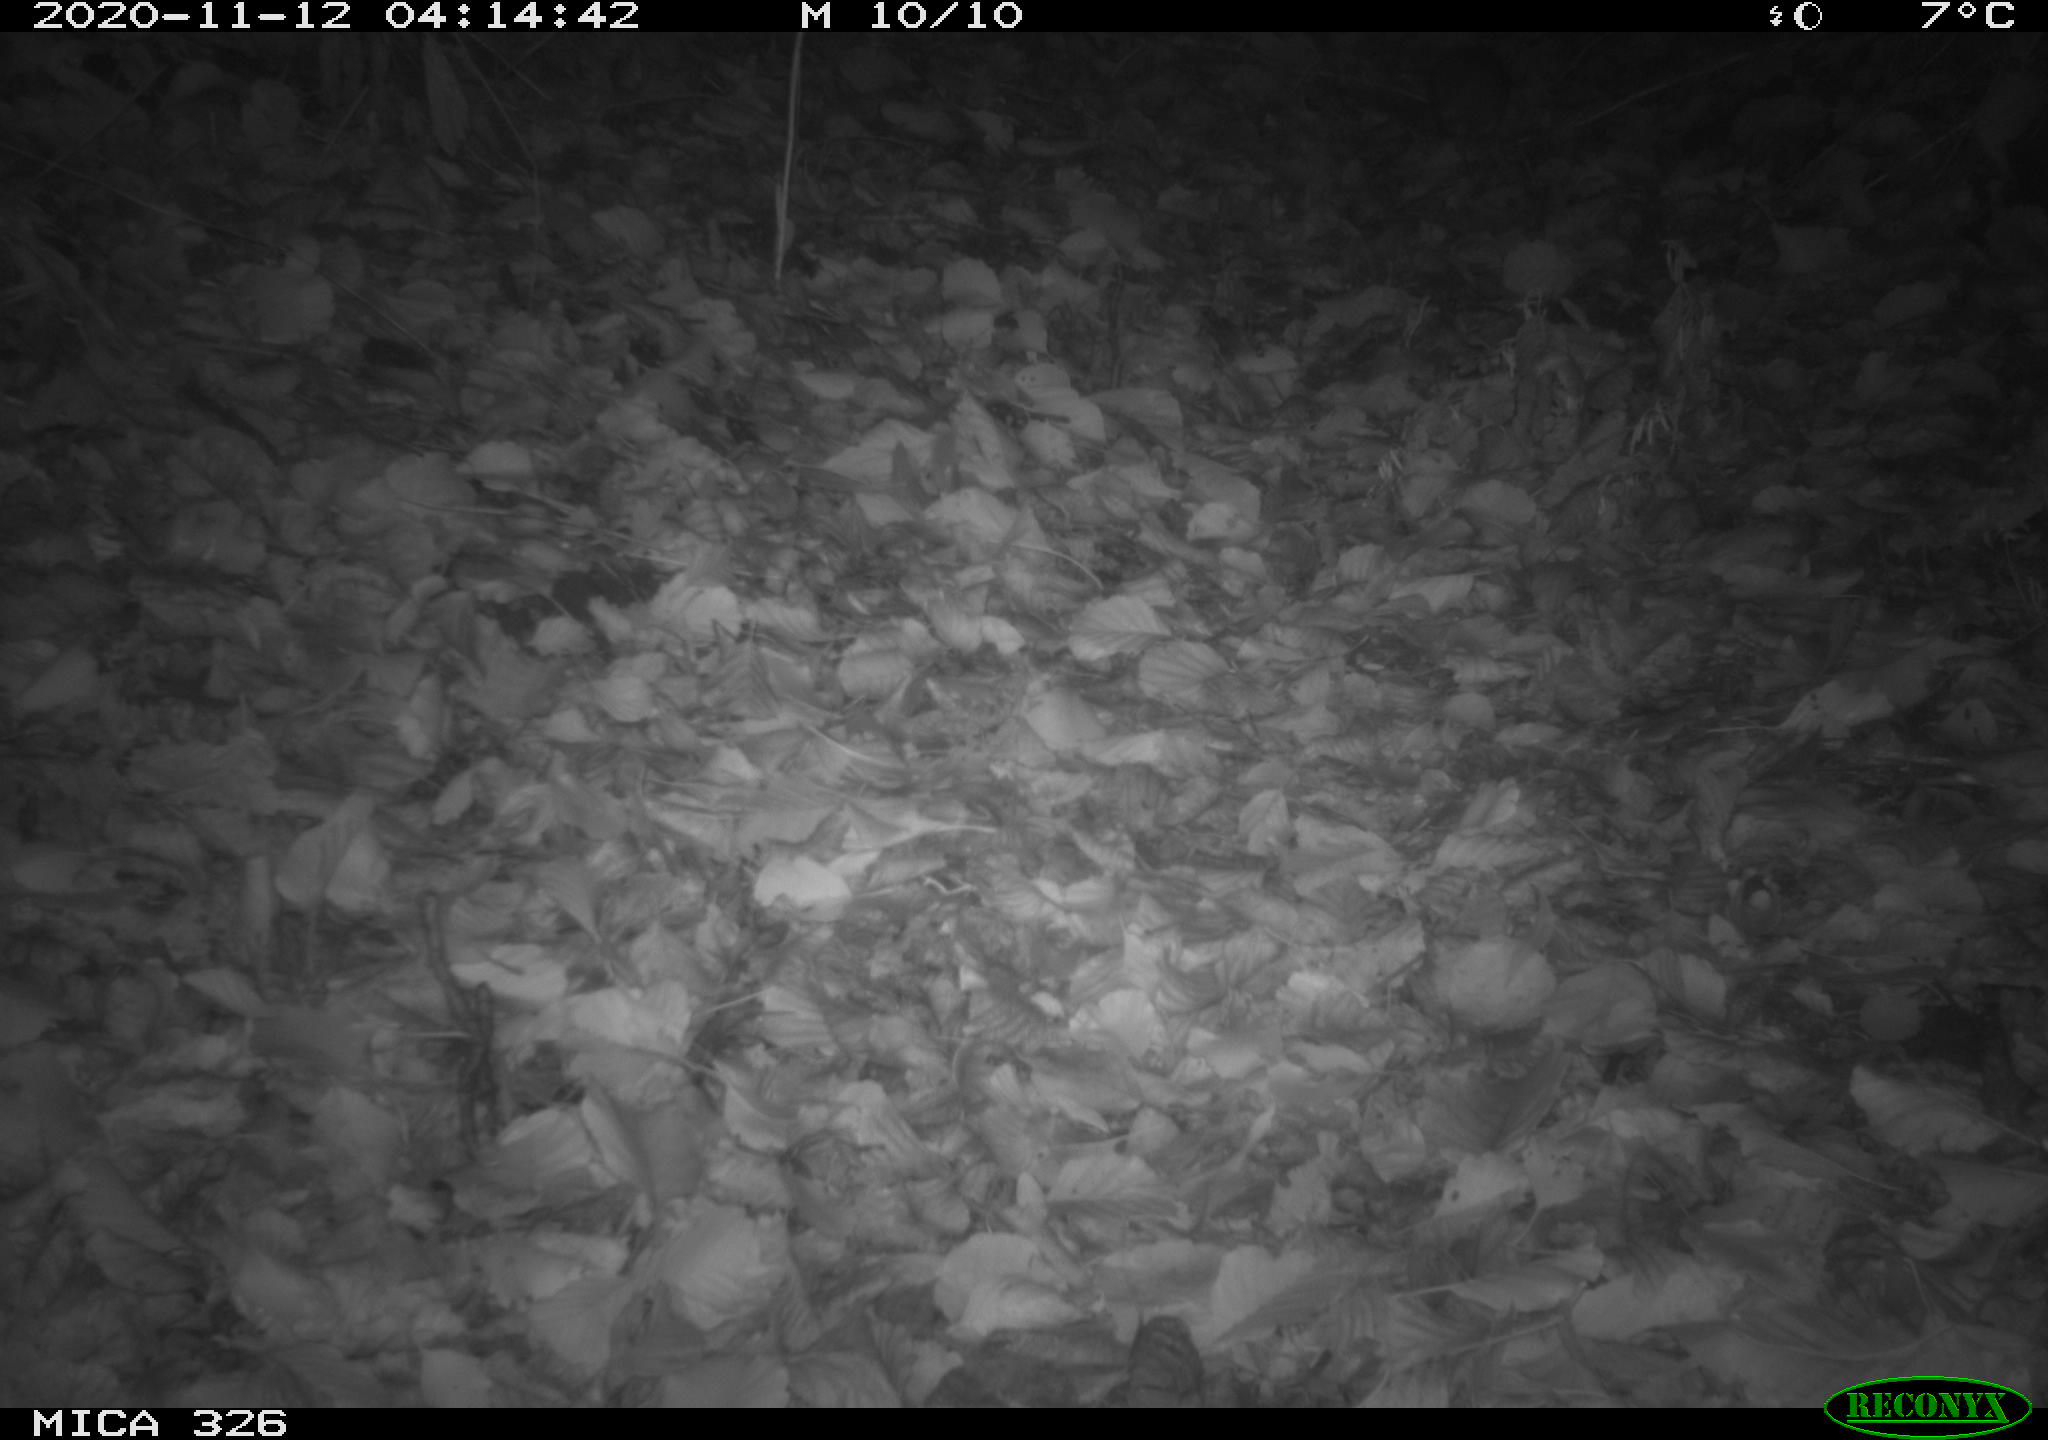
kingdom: Animalia
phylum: Chordata
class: Mammalia
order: Rodentia
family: Myocastoridae
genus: Myocastor
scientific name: Myocastor coypus
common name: Coypu
